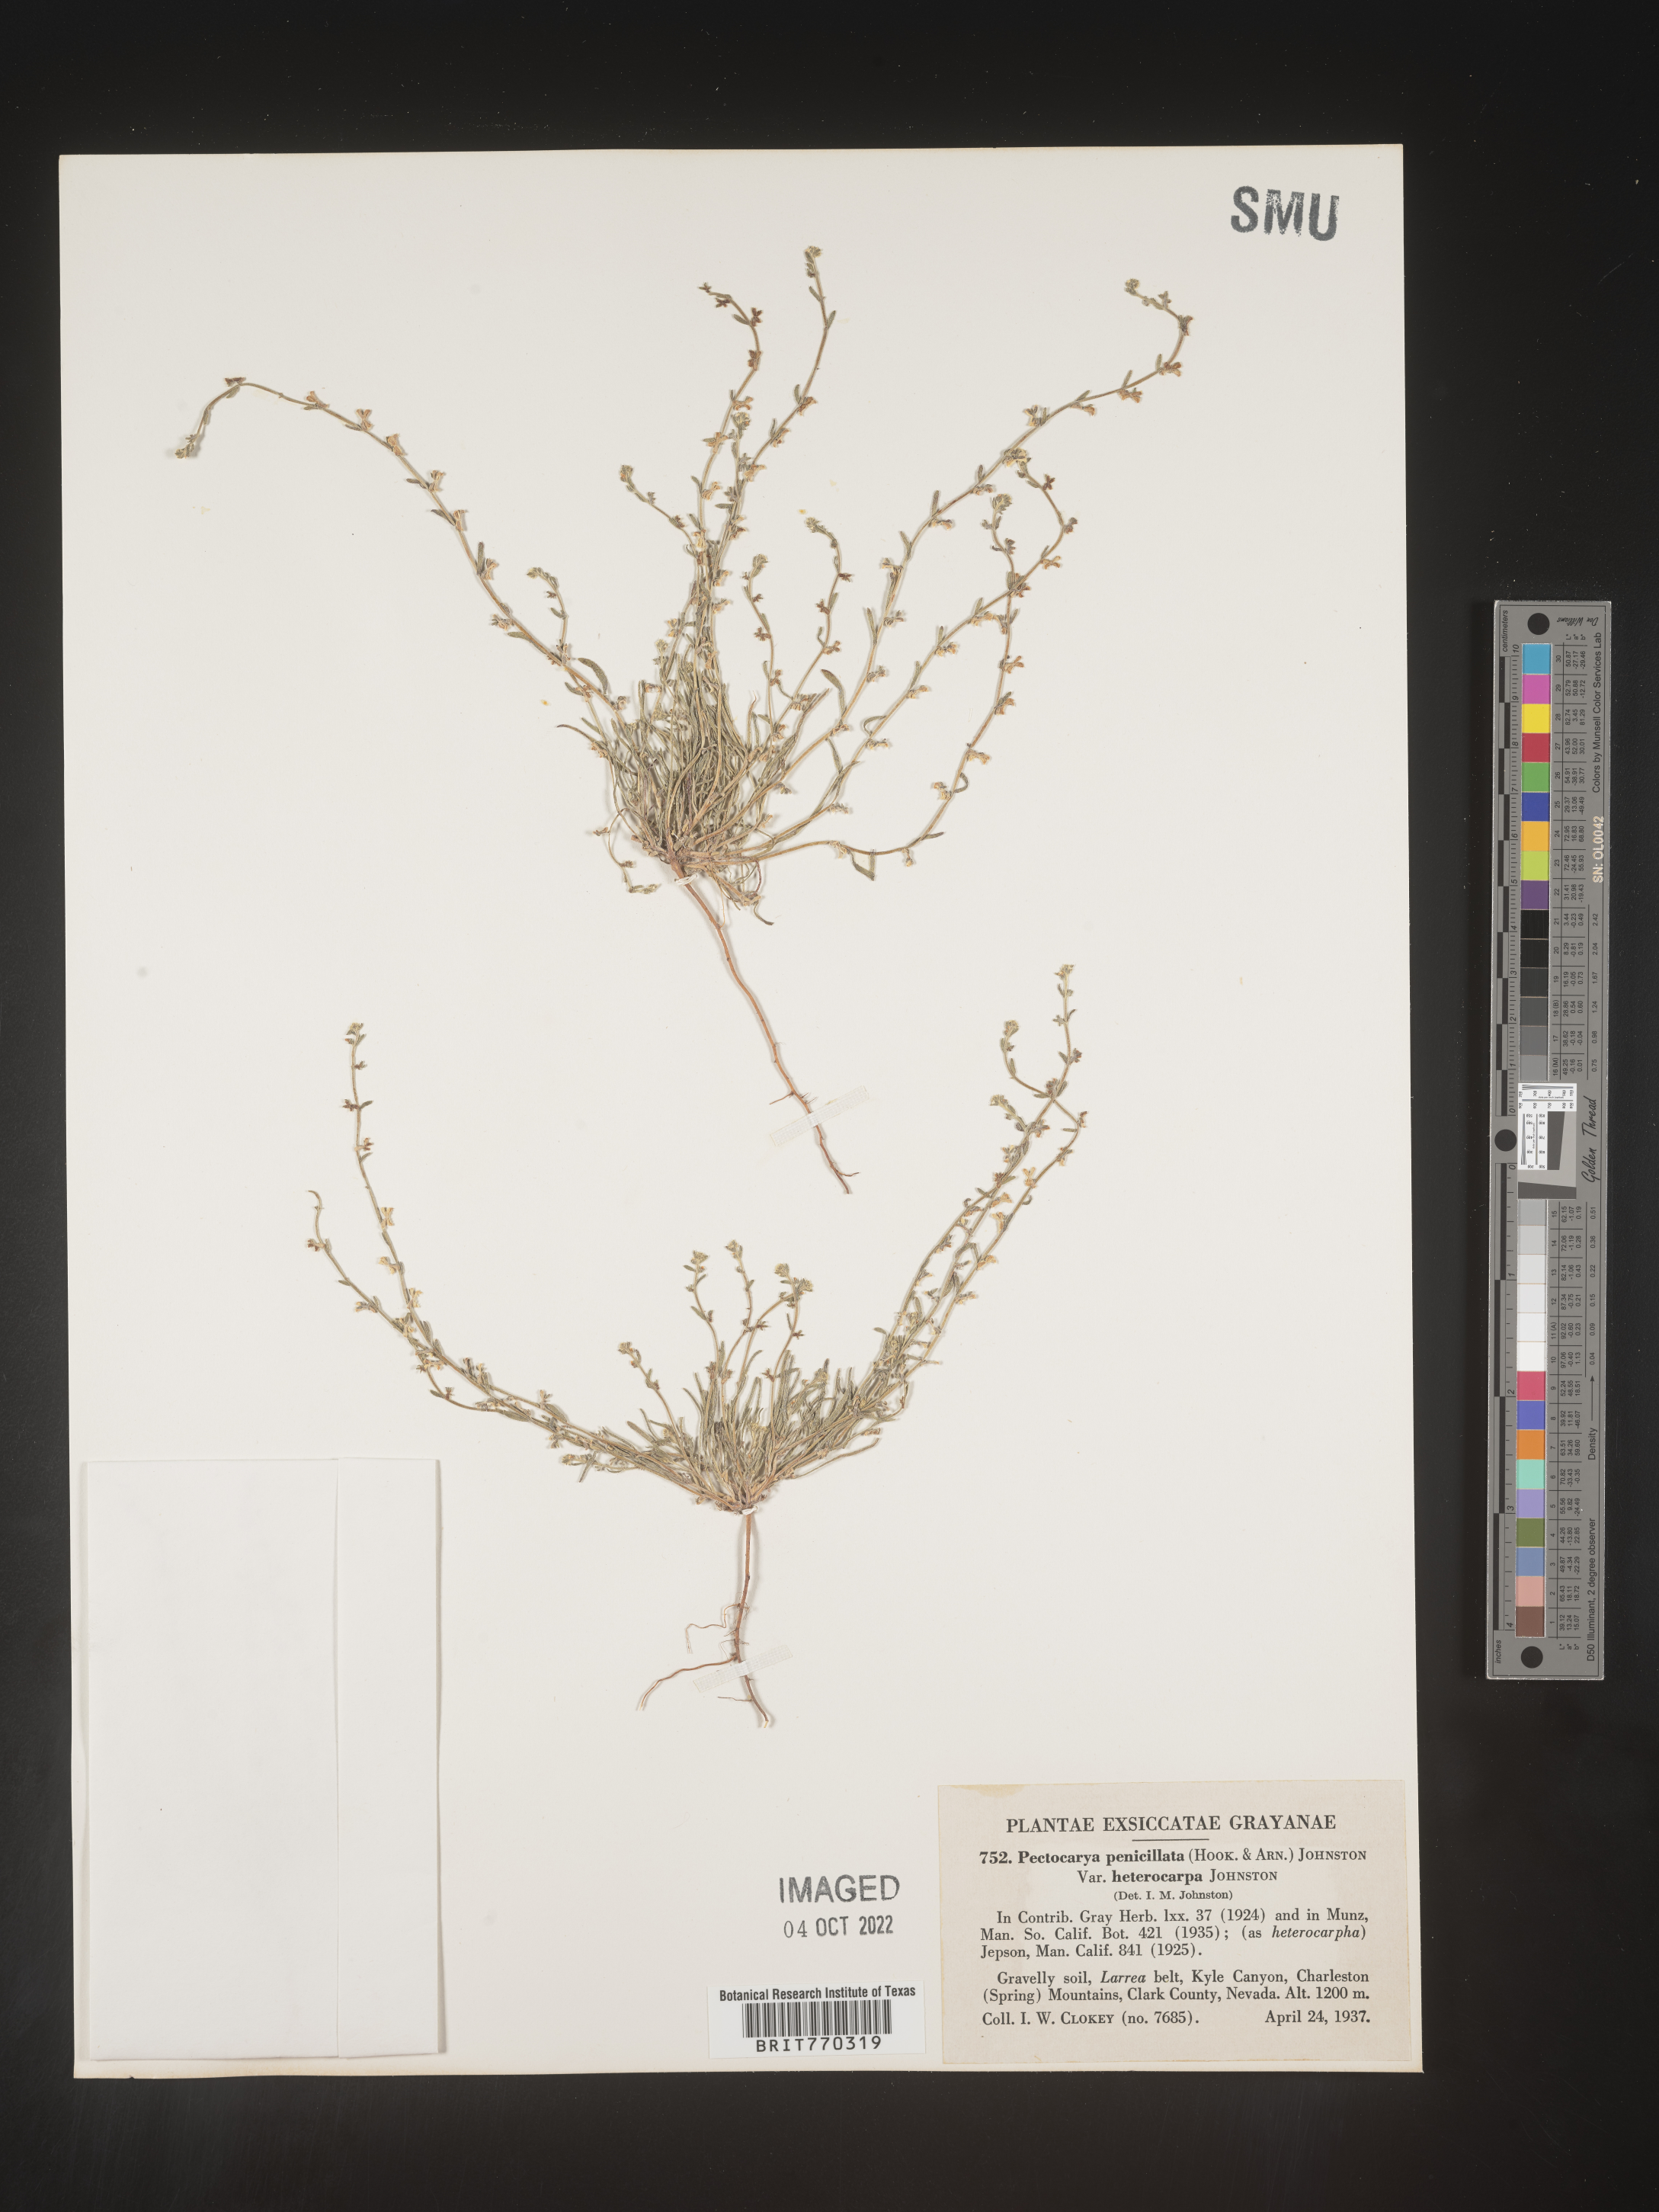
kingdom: Plantae
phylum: Tracheophyta
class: Magnoliopsida
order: Boraginales
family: Boraginaceae
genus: Pectocarya
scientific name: Pectocarya
